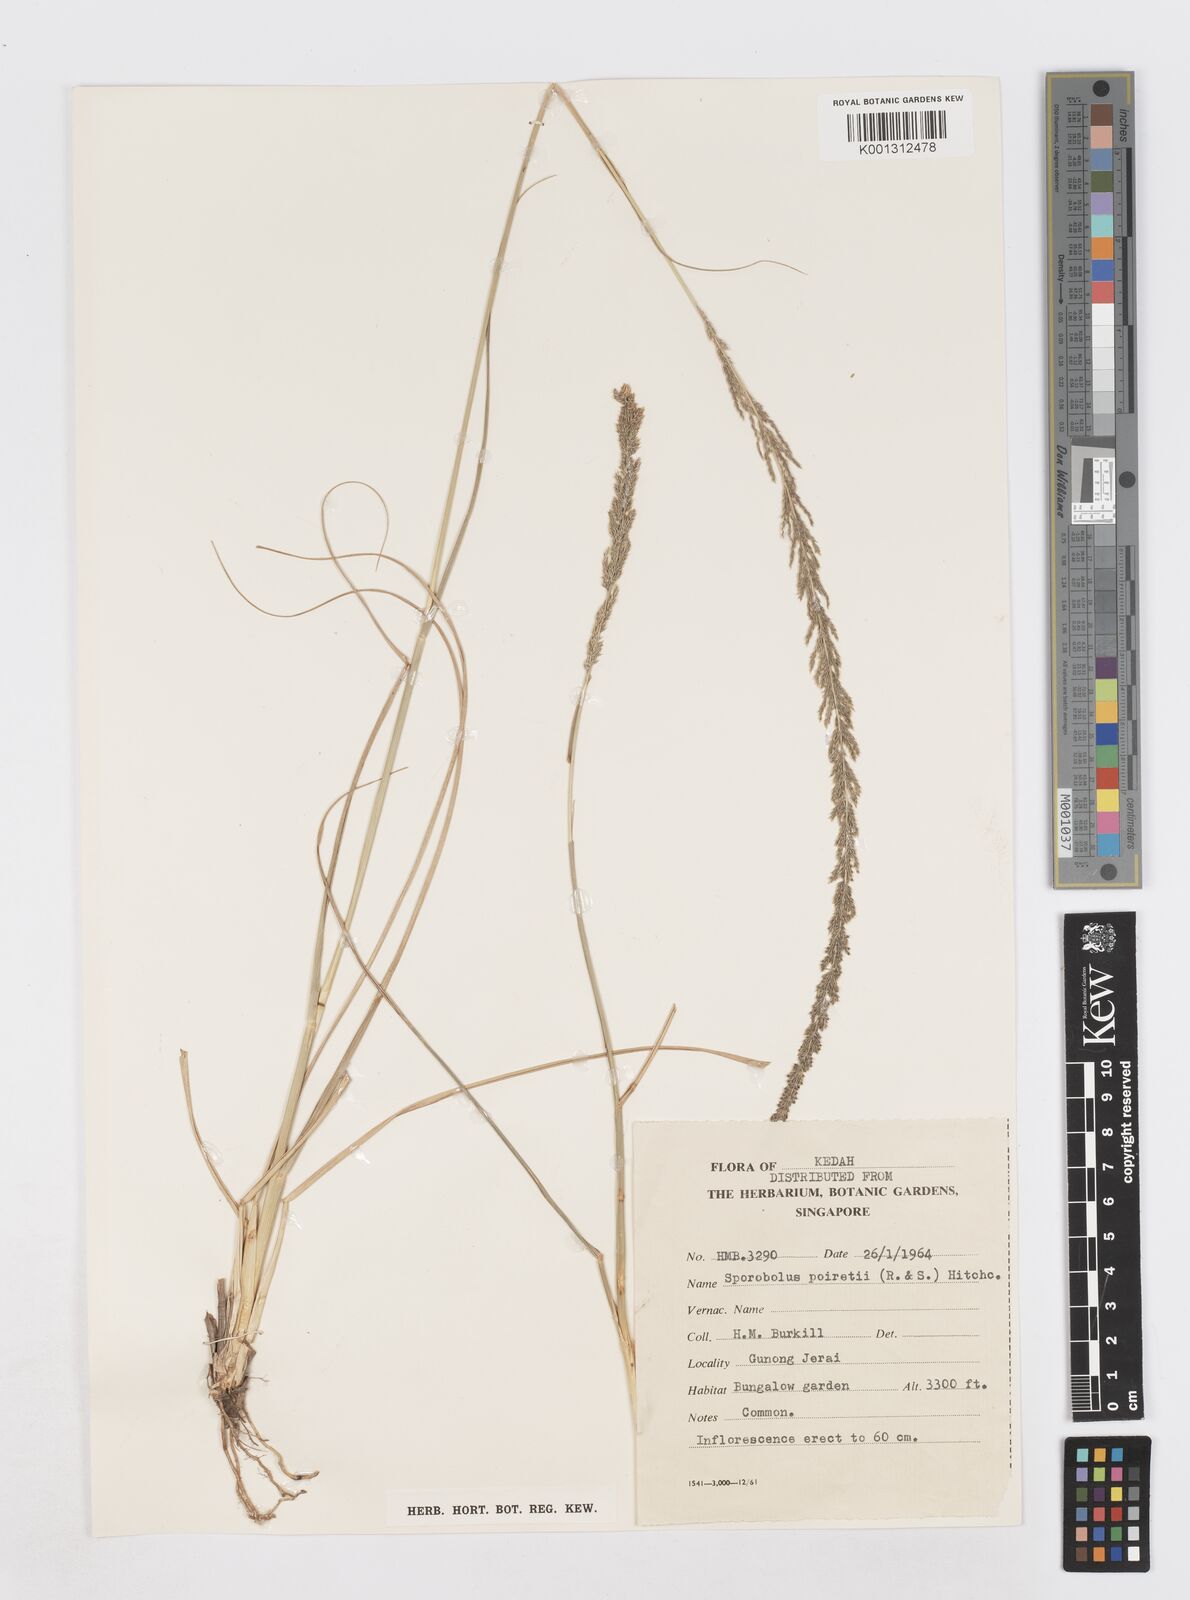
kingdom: Plantae
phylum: Tracheophyta
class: Liliopsida
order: Poales
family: Poaceae
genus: Sporobolus
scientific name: Sporobolus fertilis
